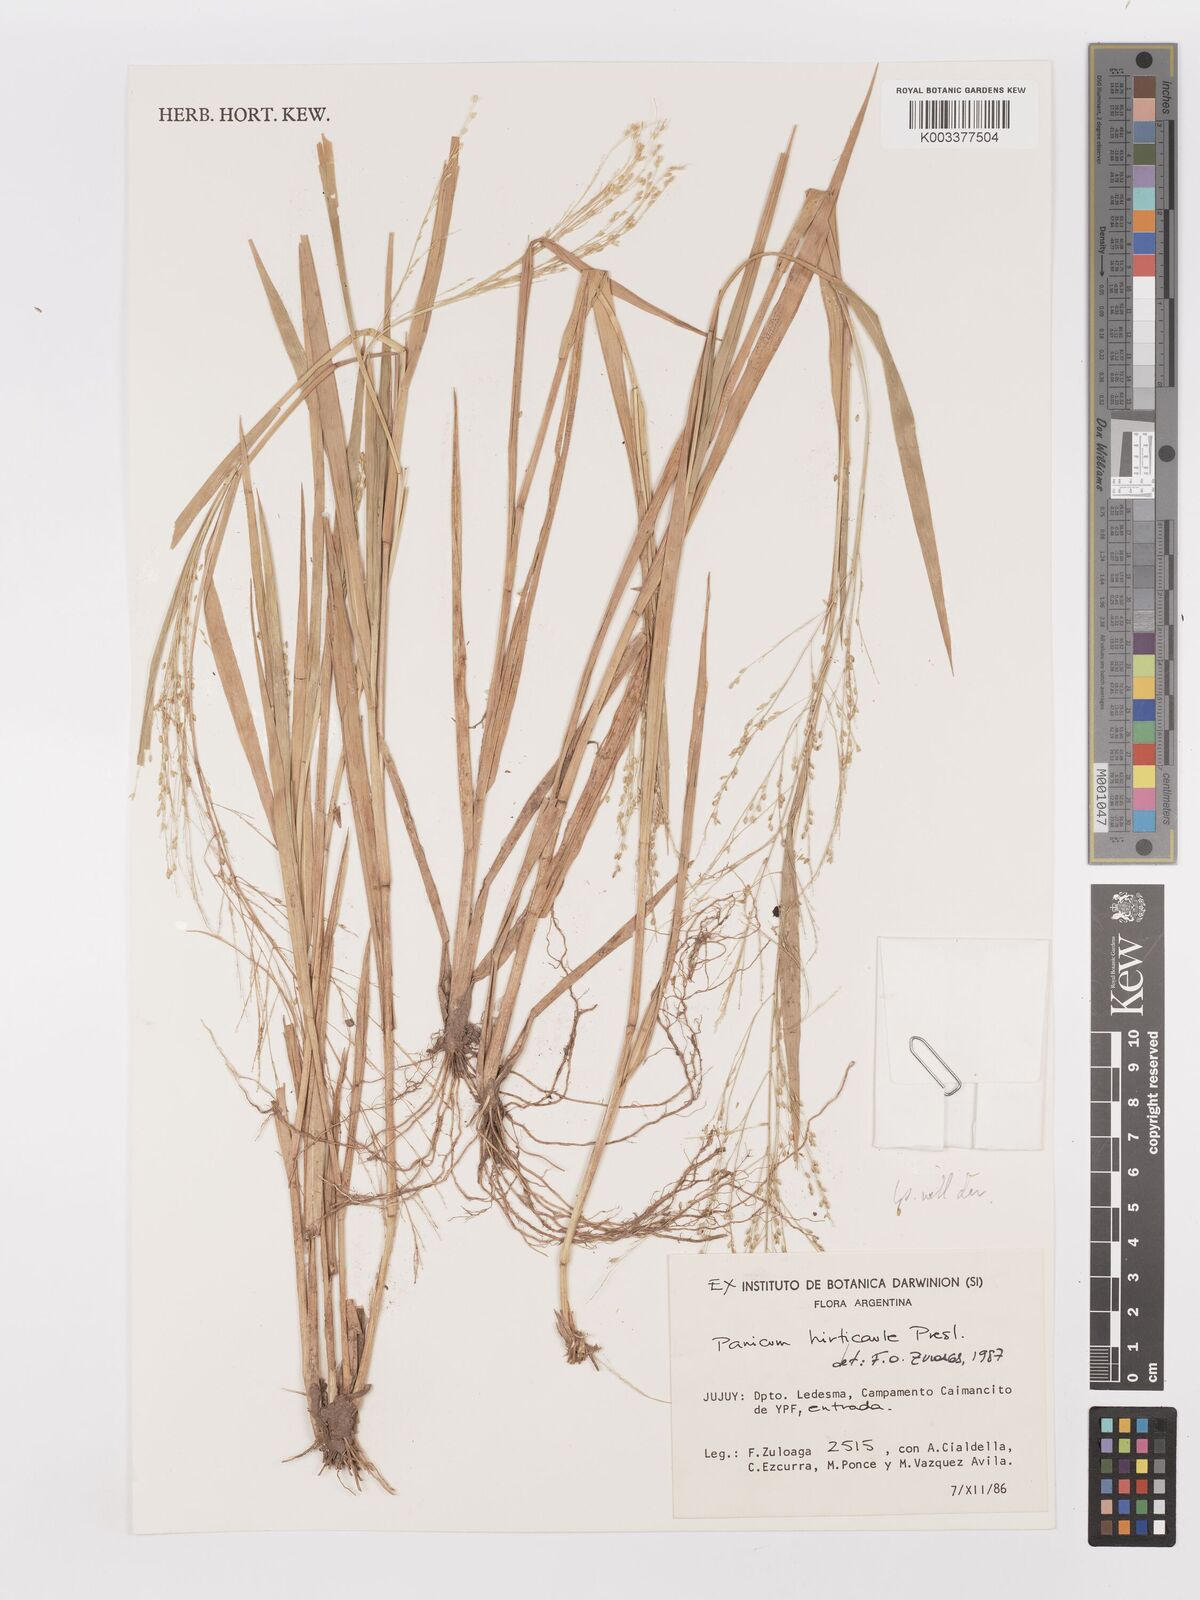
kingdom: Plantae
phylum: Tracheophyta
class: Liliopsida
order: Poales
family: Poaceae
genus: Panicum
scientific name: Panicum stramineum
